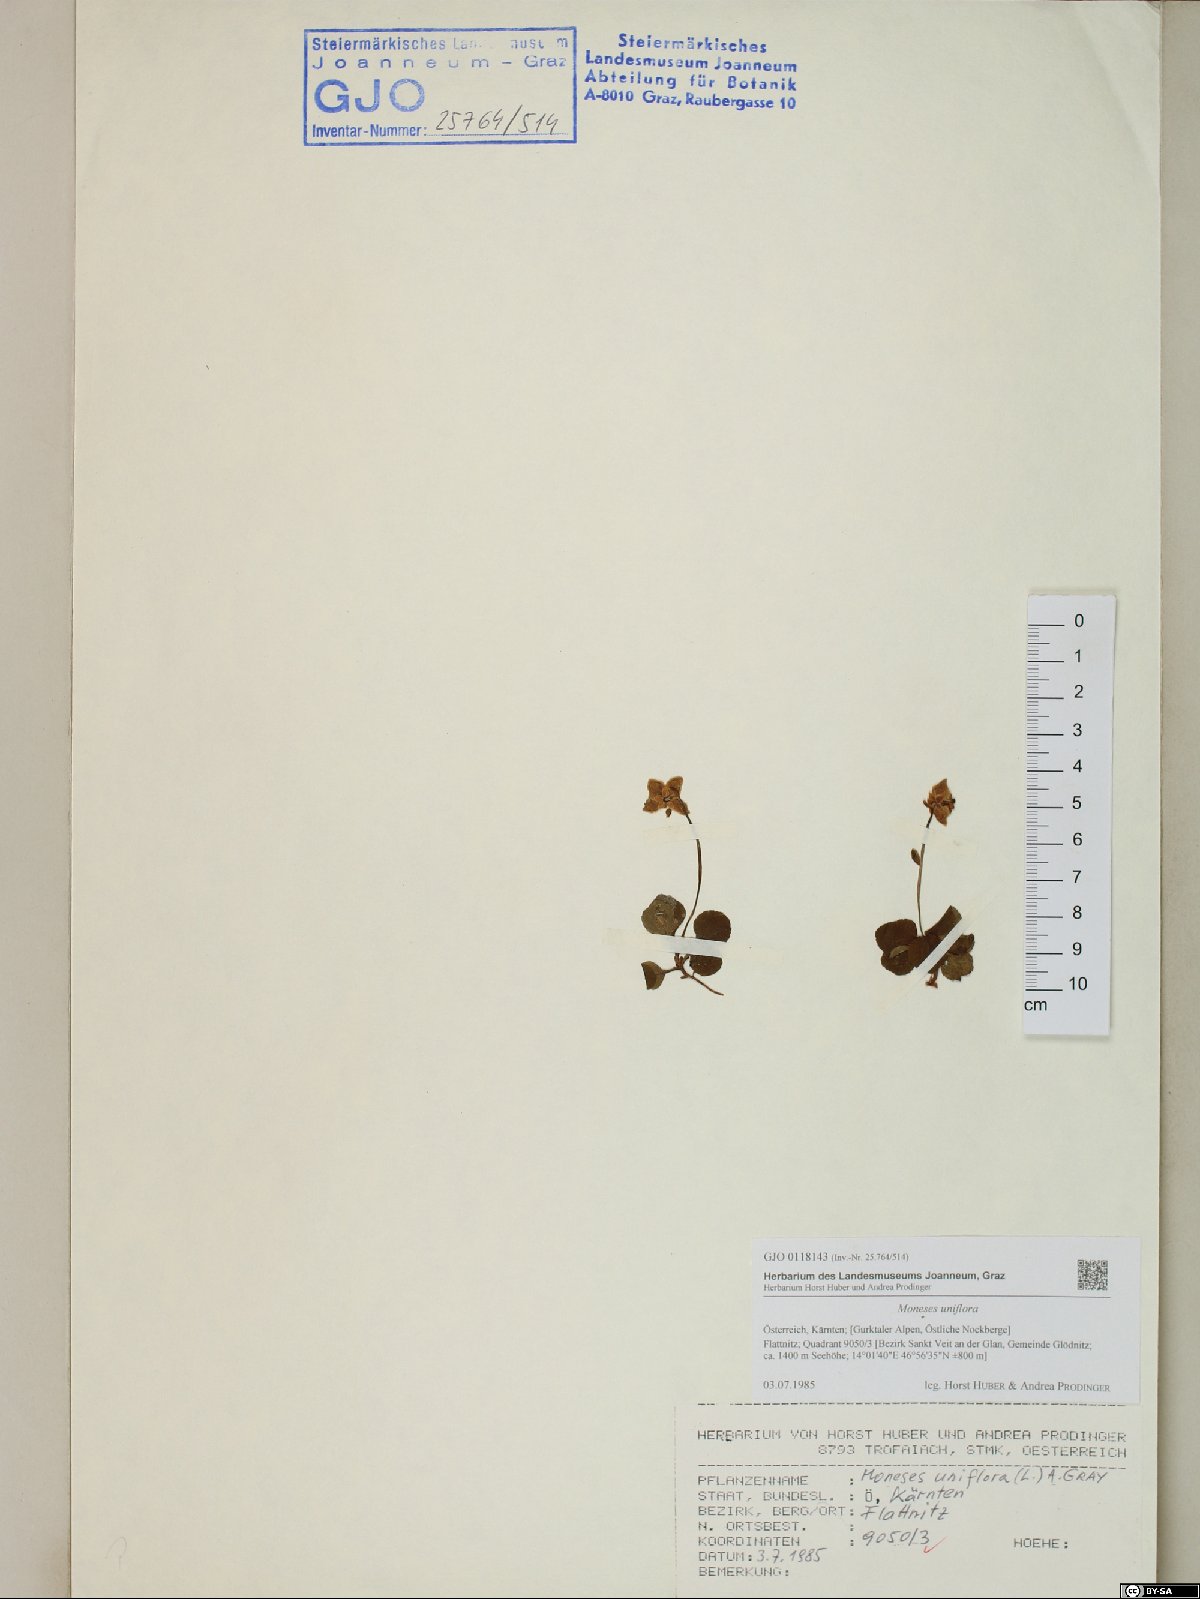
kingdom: Plantae
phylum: Tracheophyta
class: Magnoliopsida
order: Ericales
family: Ericaceae
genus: Moneses
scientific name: Moneses uniflora
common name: One-flowered wintergreen
